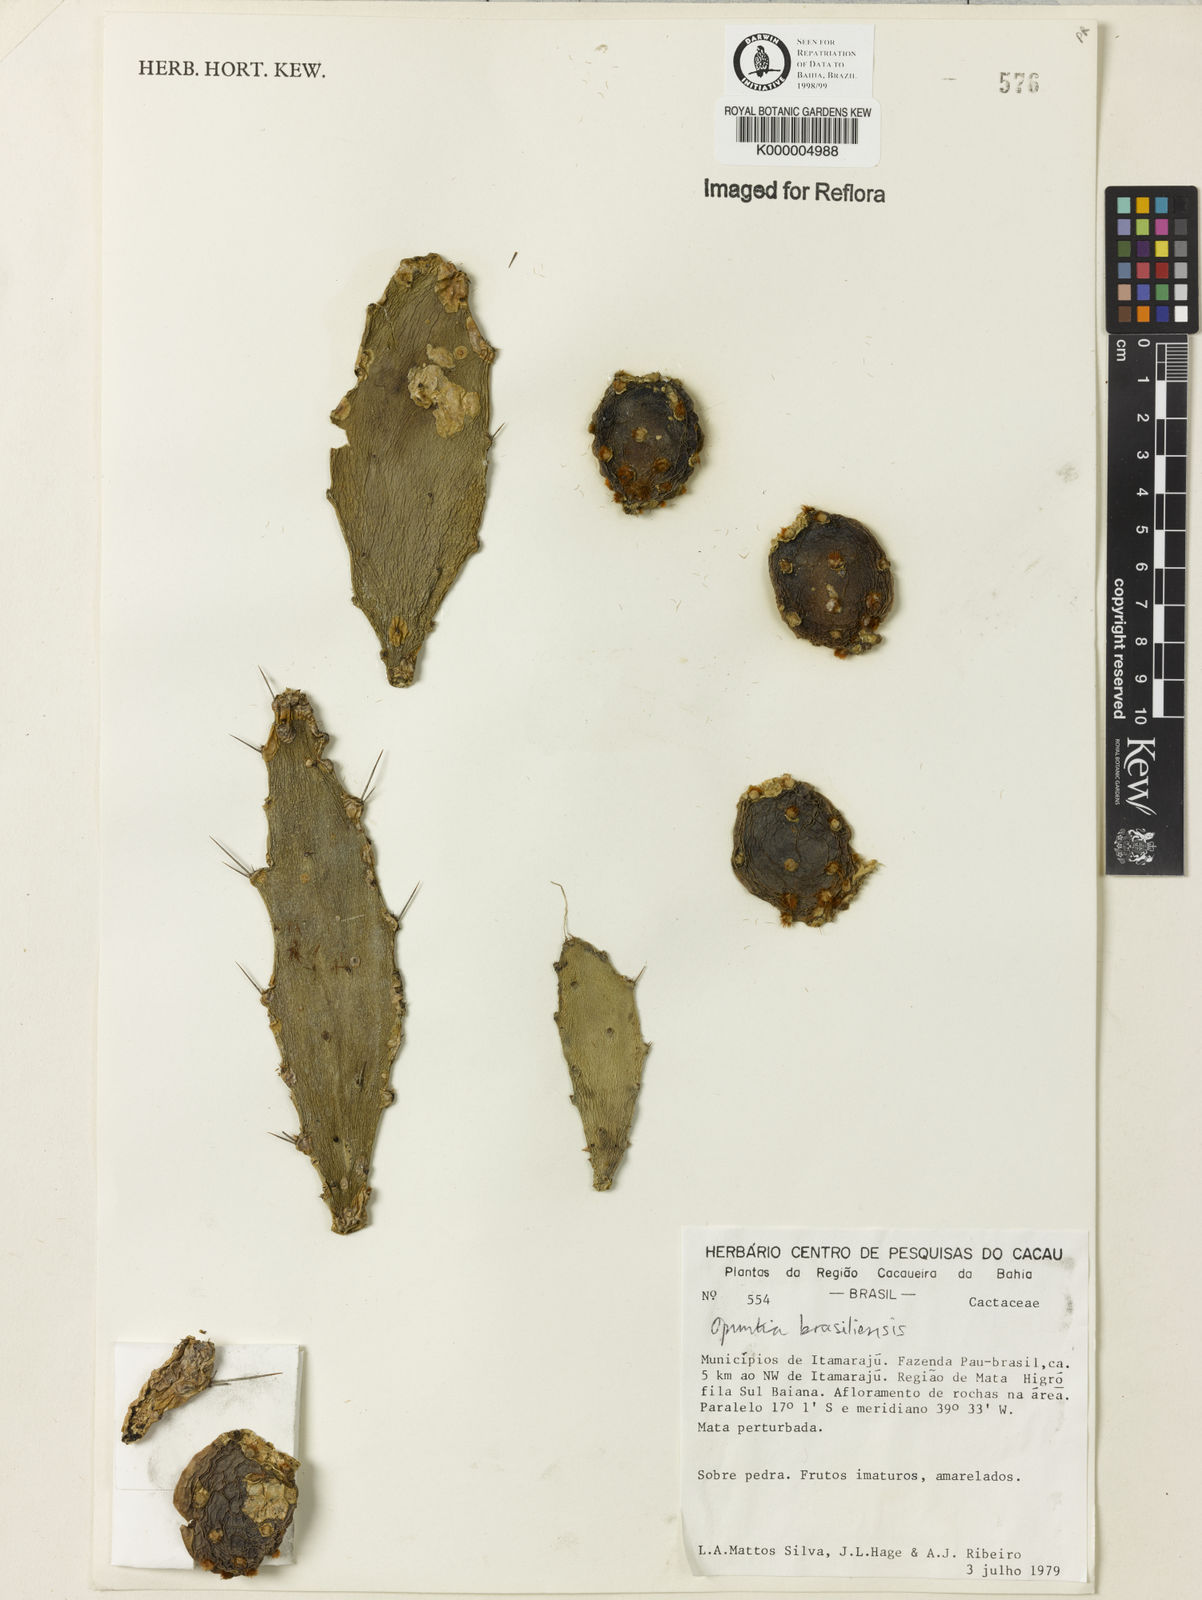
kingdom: Plantae
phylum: Tracheophyta
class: Magnoliopsida
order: Caryophyllales
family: Cactaceae
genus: Brasiliopuntia
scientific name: Brasiliopuntia brasiliensis
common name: Brazilian pricklypear
